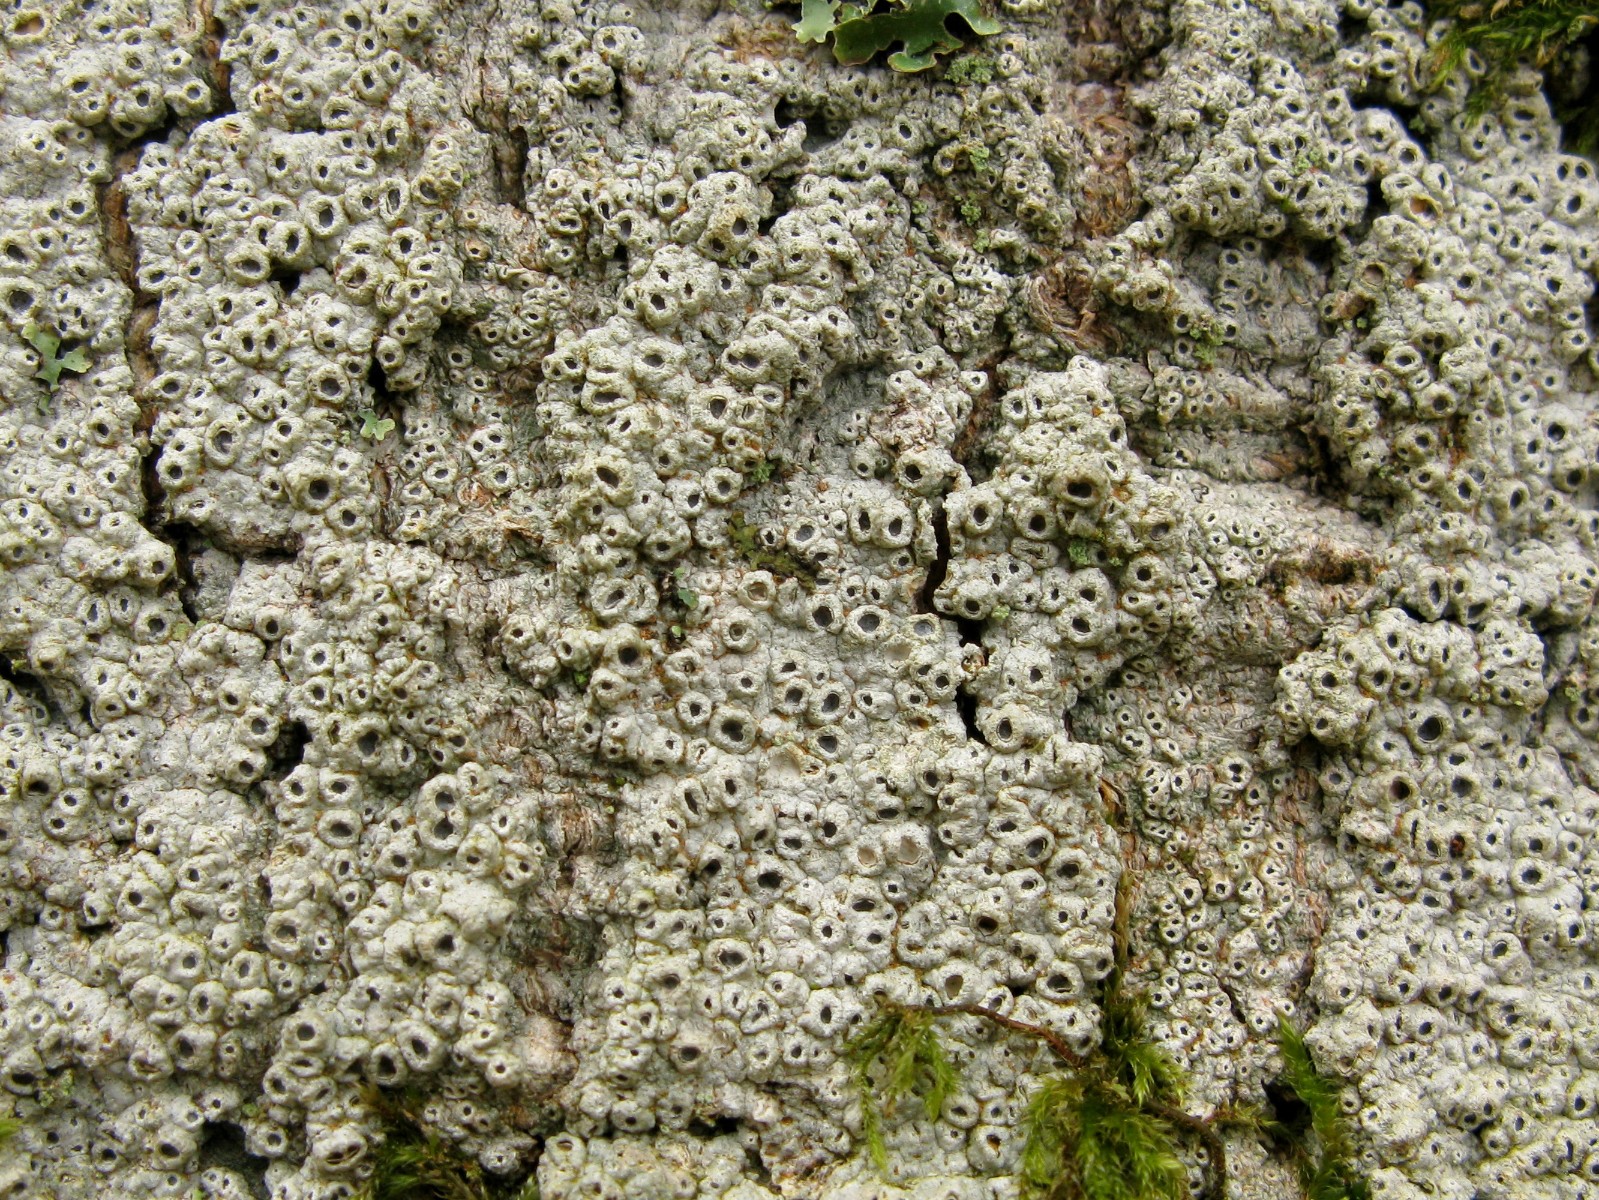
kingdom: Fungi
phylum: Ascomycota
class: Lecanoromycetes
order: Ostropales
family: Graphidaceae
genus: Thelotrema
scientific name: Thelotrema lepadinum
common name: almindelig slørkantlav
